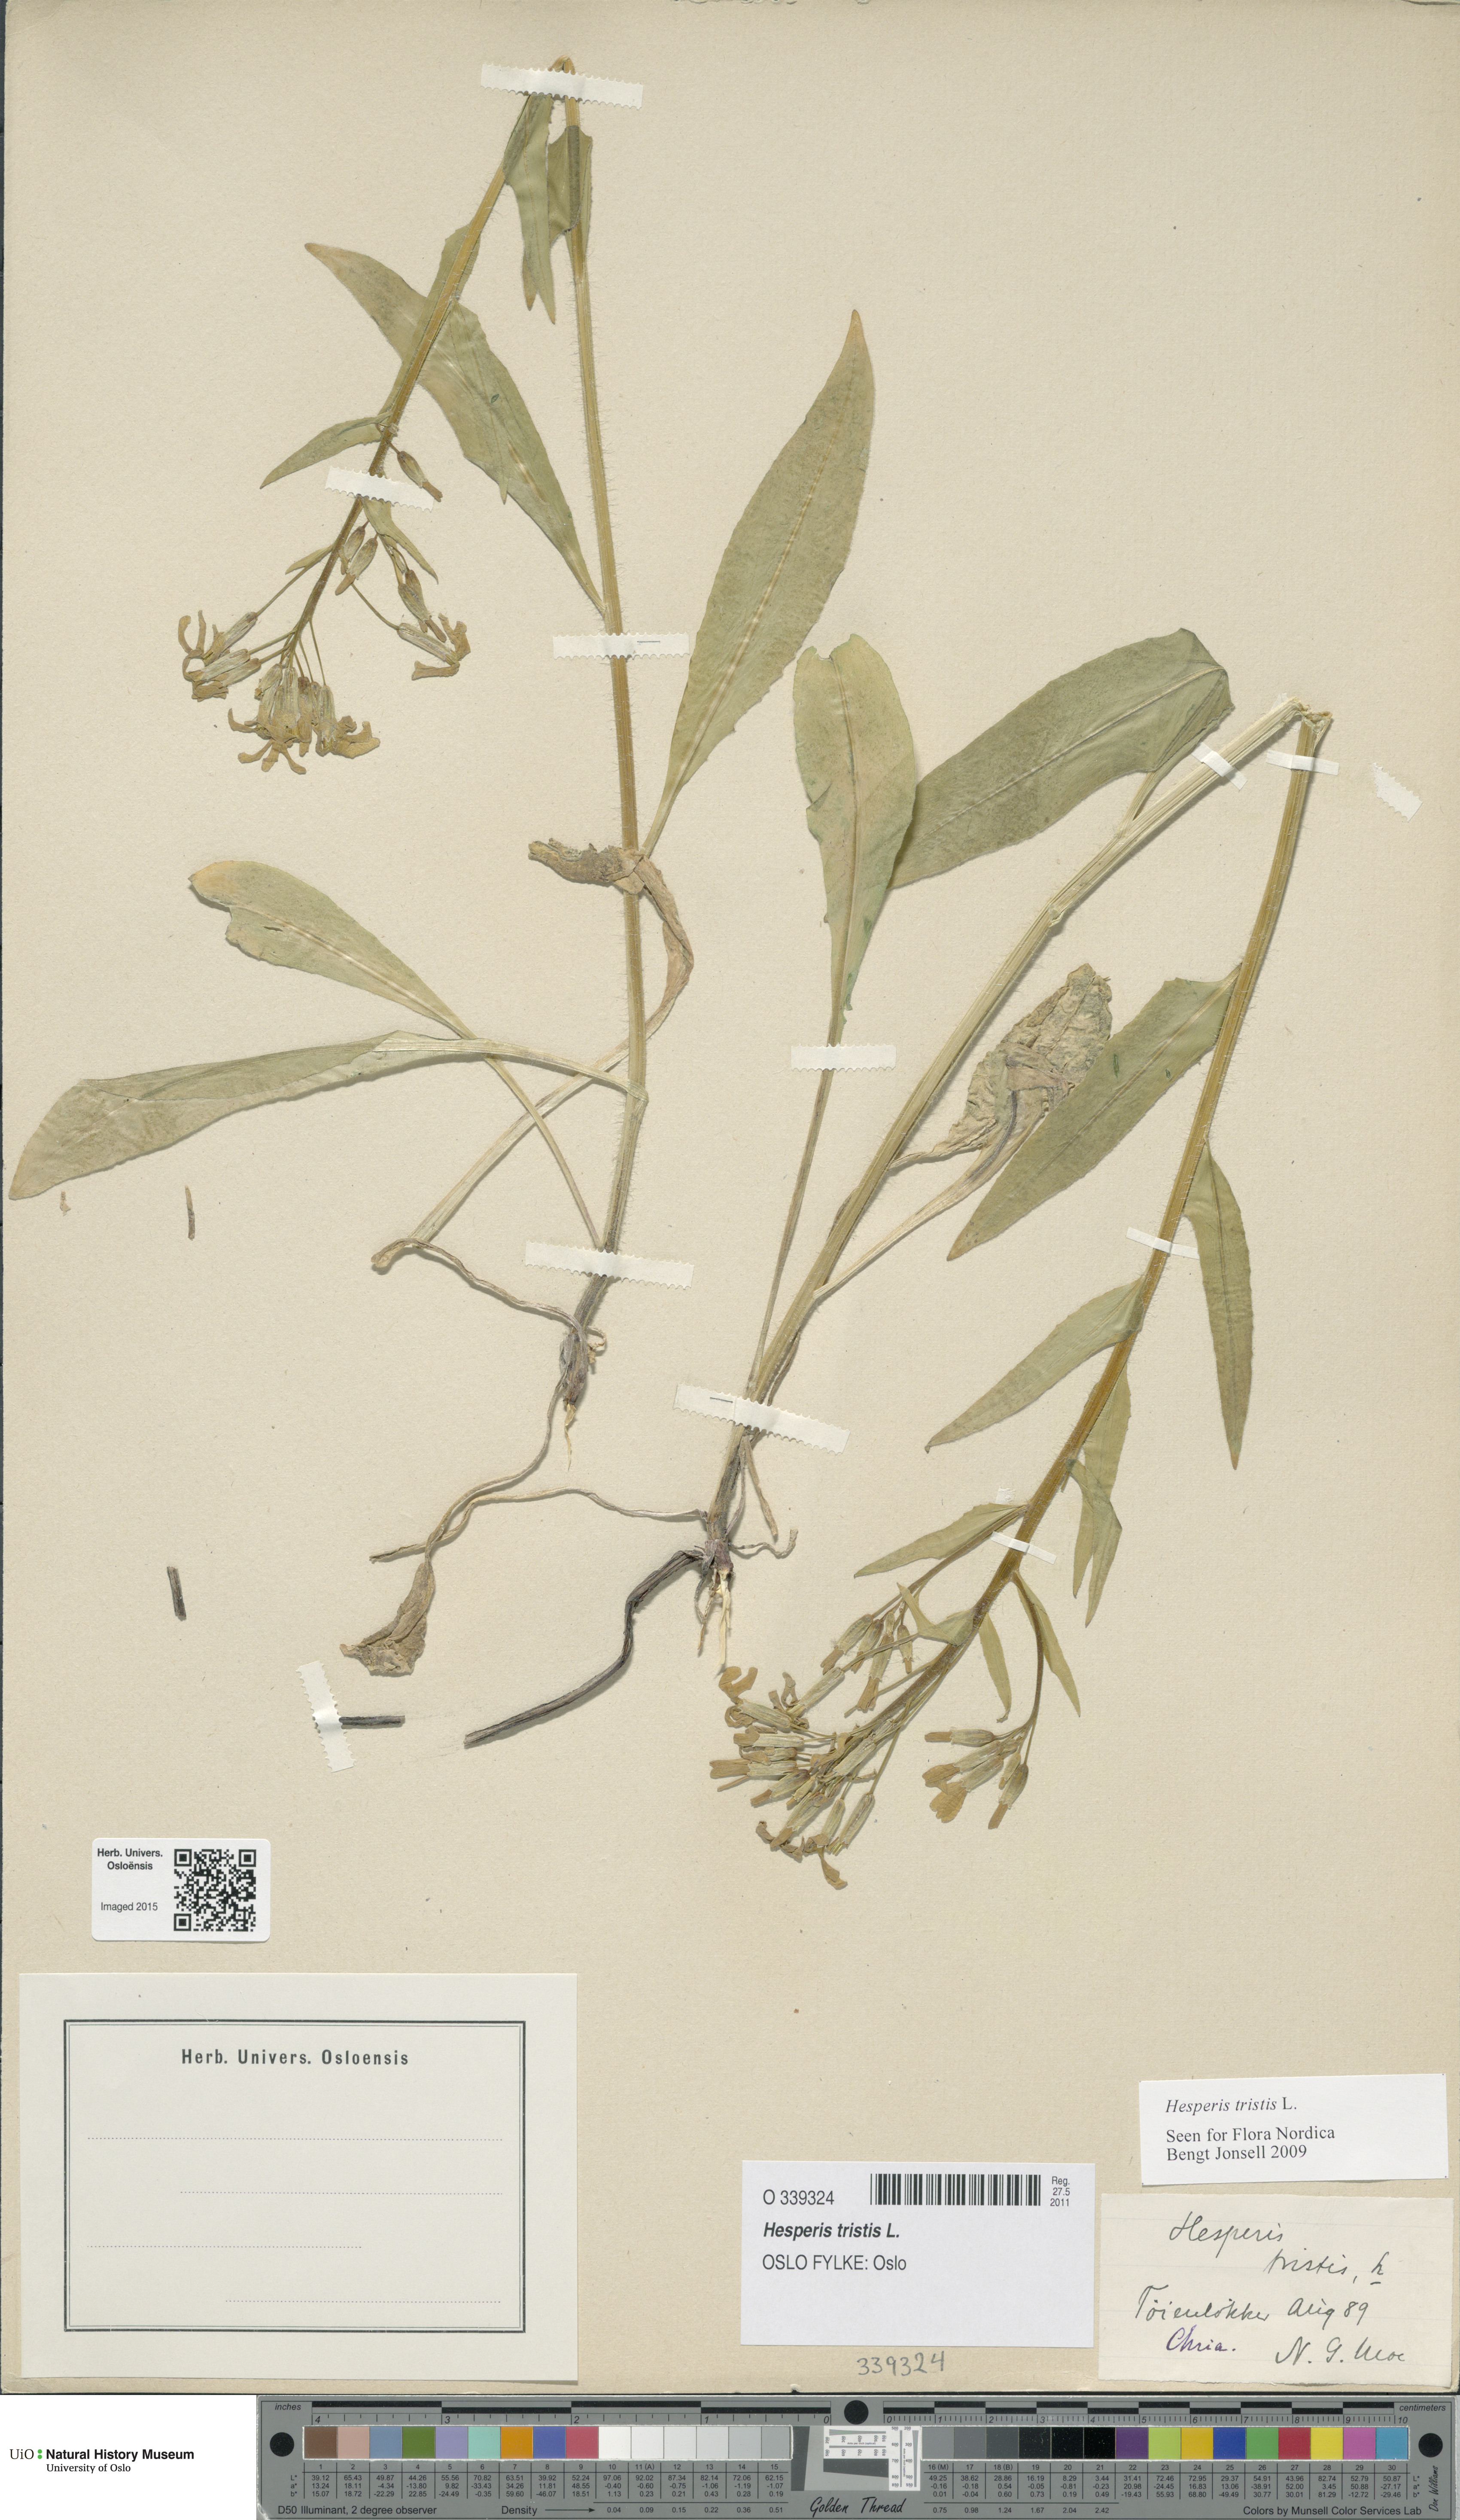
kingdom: Plantae
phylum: Tracheophyta
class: Magnoliopsida
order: Brassicales
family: Brassicaceae
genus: Hesperis
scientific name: Hesperis tristis
